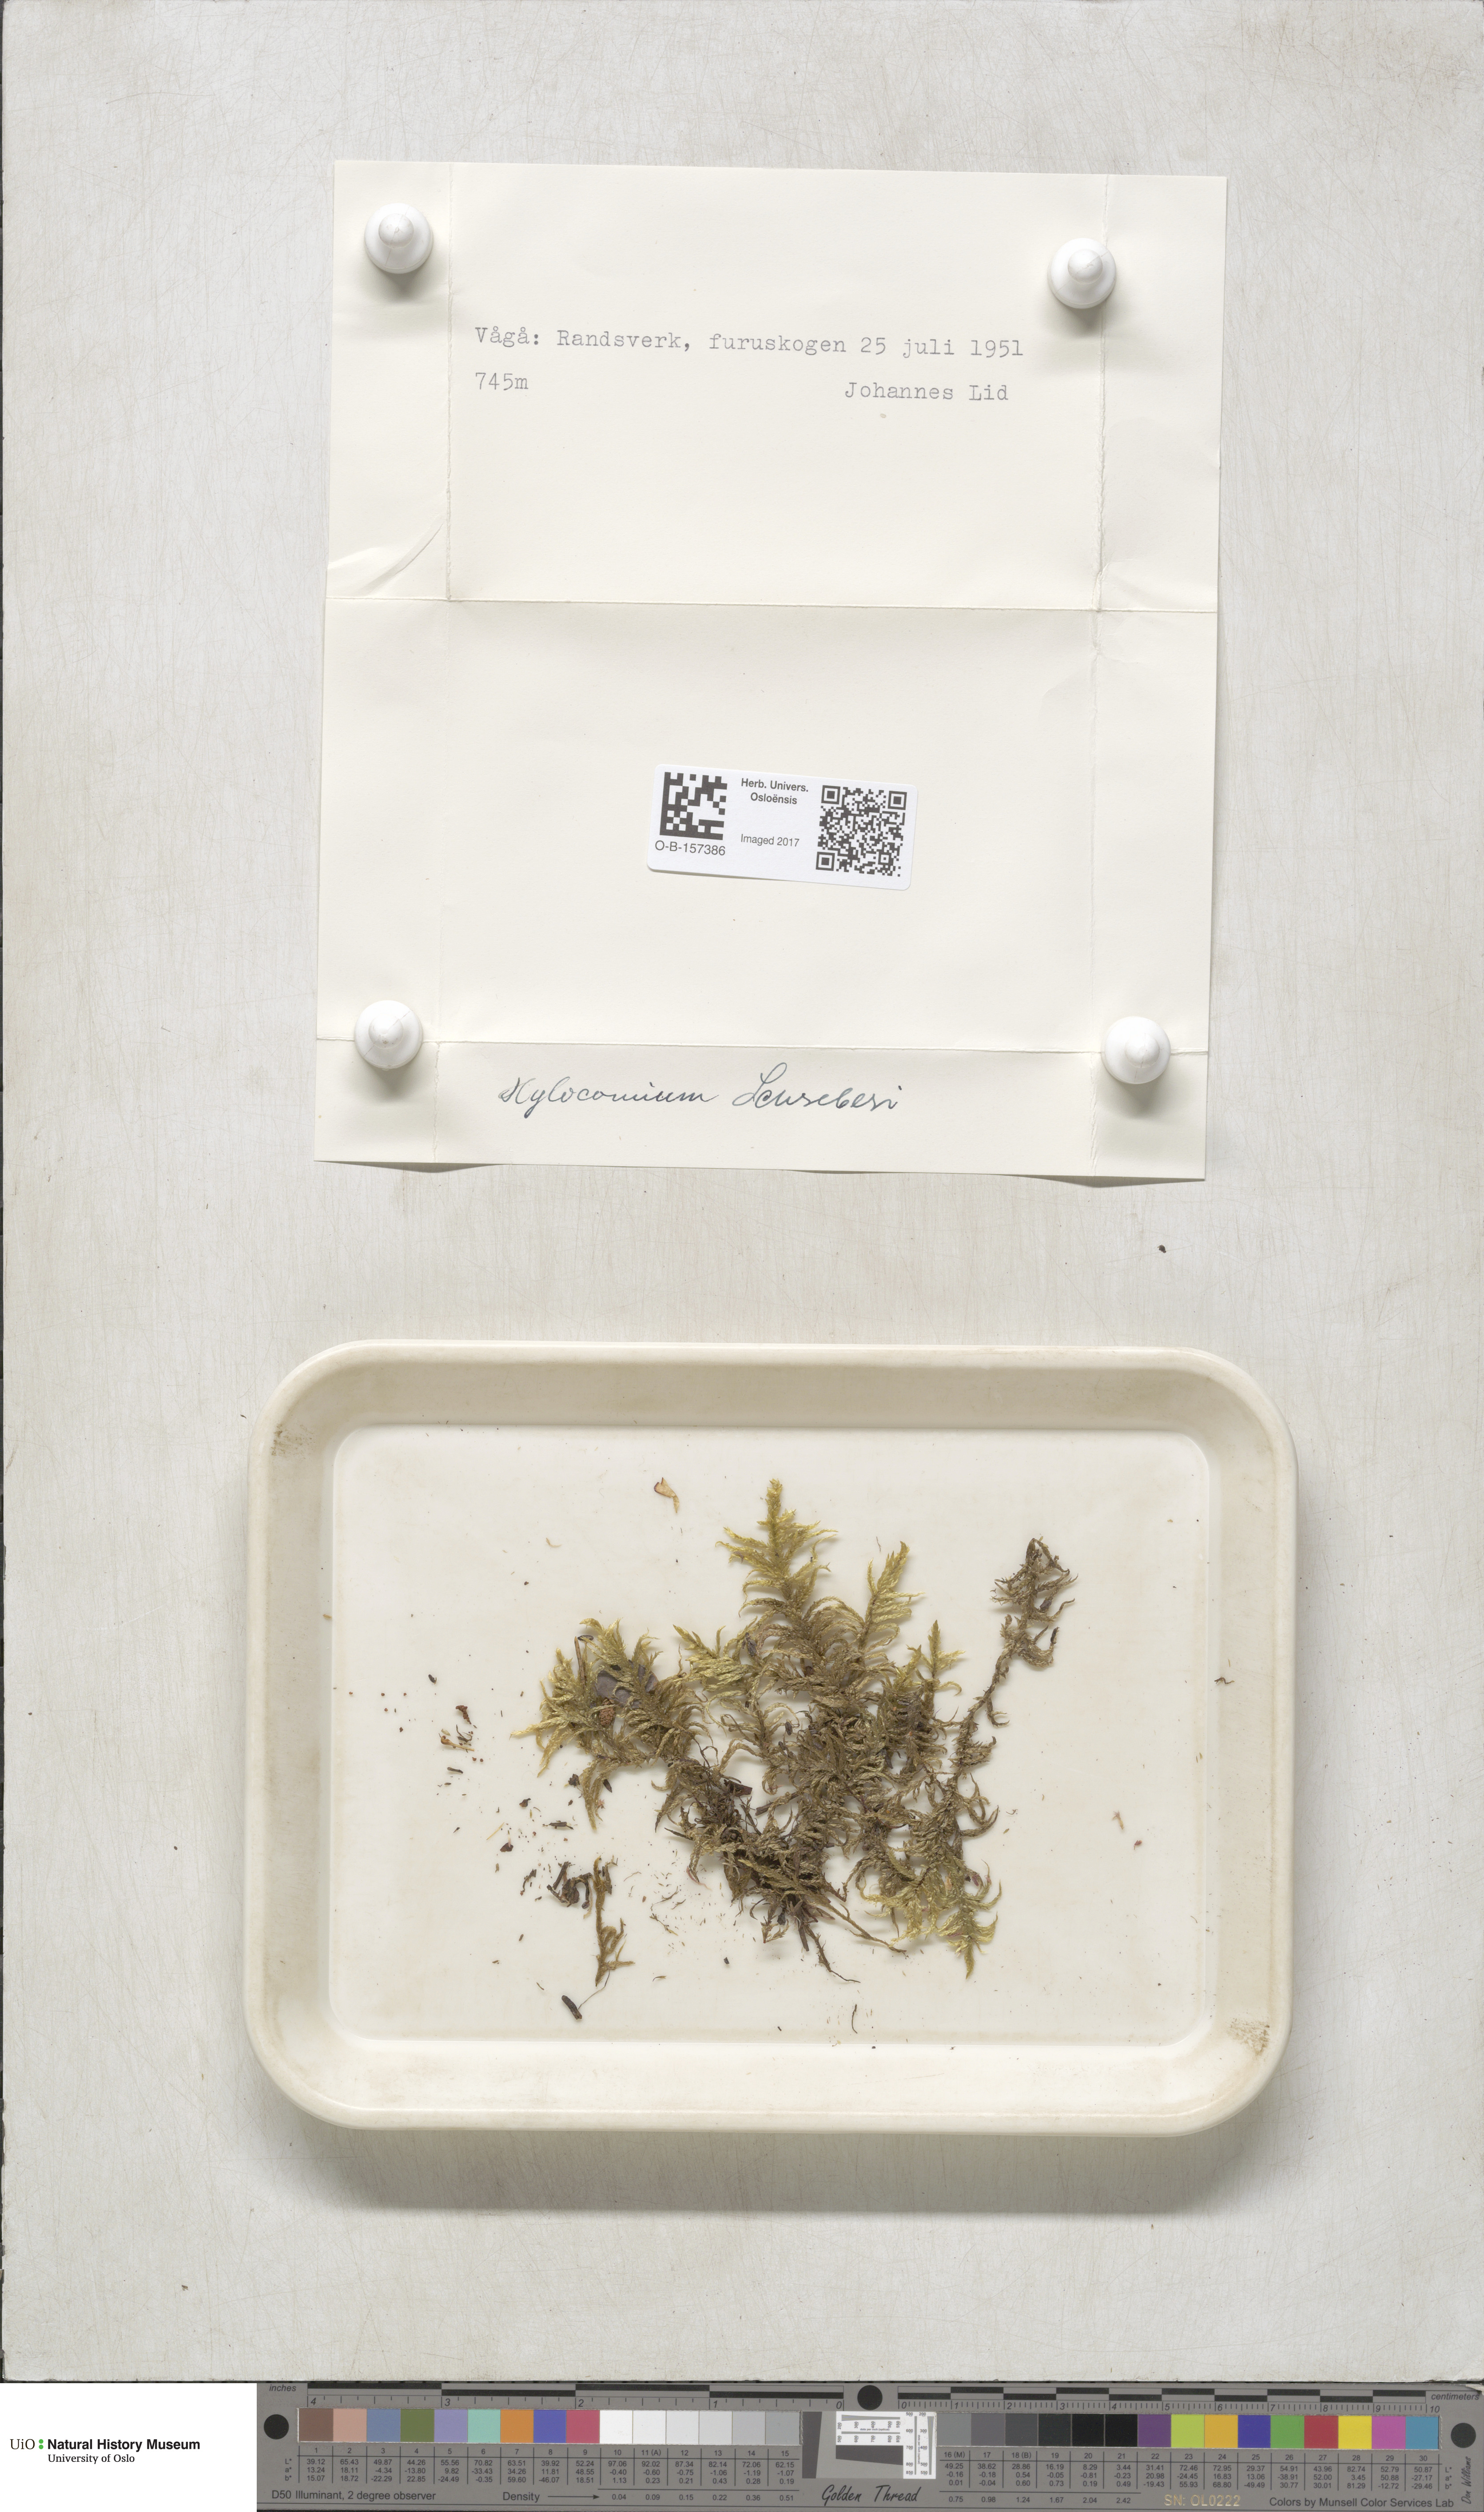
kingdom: Plantae
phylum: Bryophyta
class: Bryopsida
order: Hypnales
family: Hylocomiaceae
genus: Pleurozium
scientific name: Pleurozium schreberi
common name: Red-stemmed feather moss
